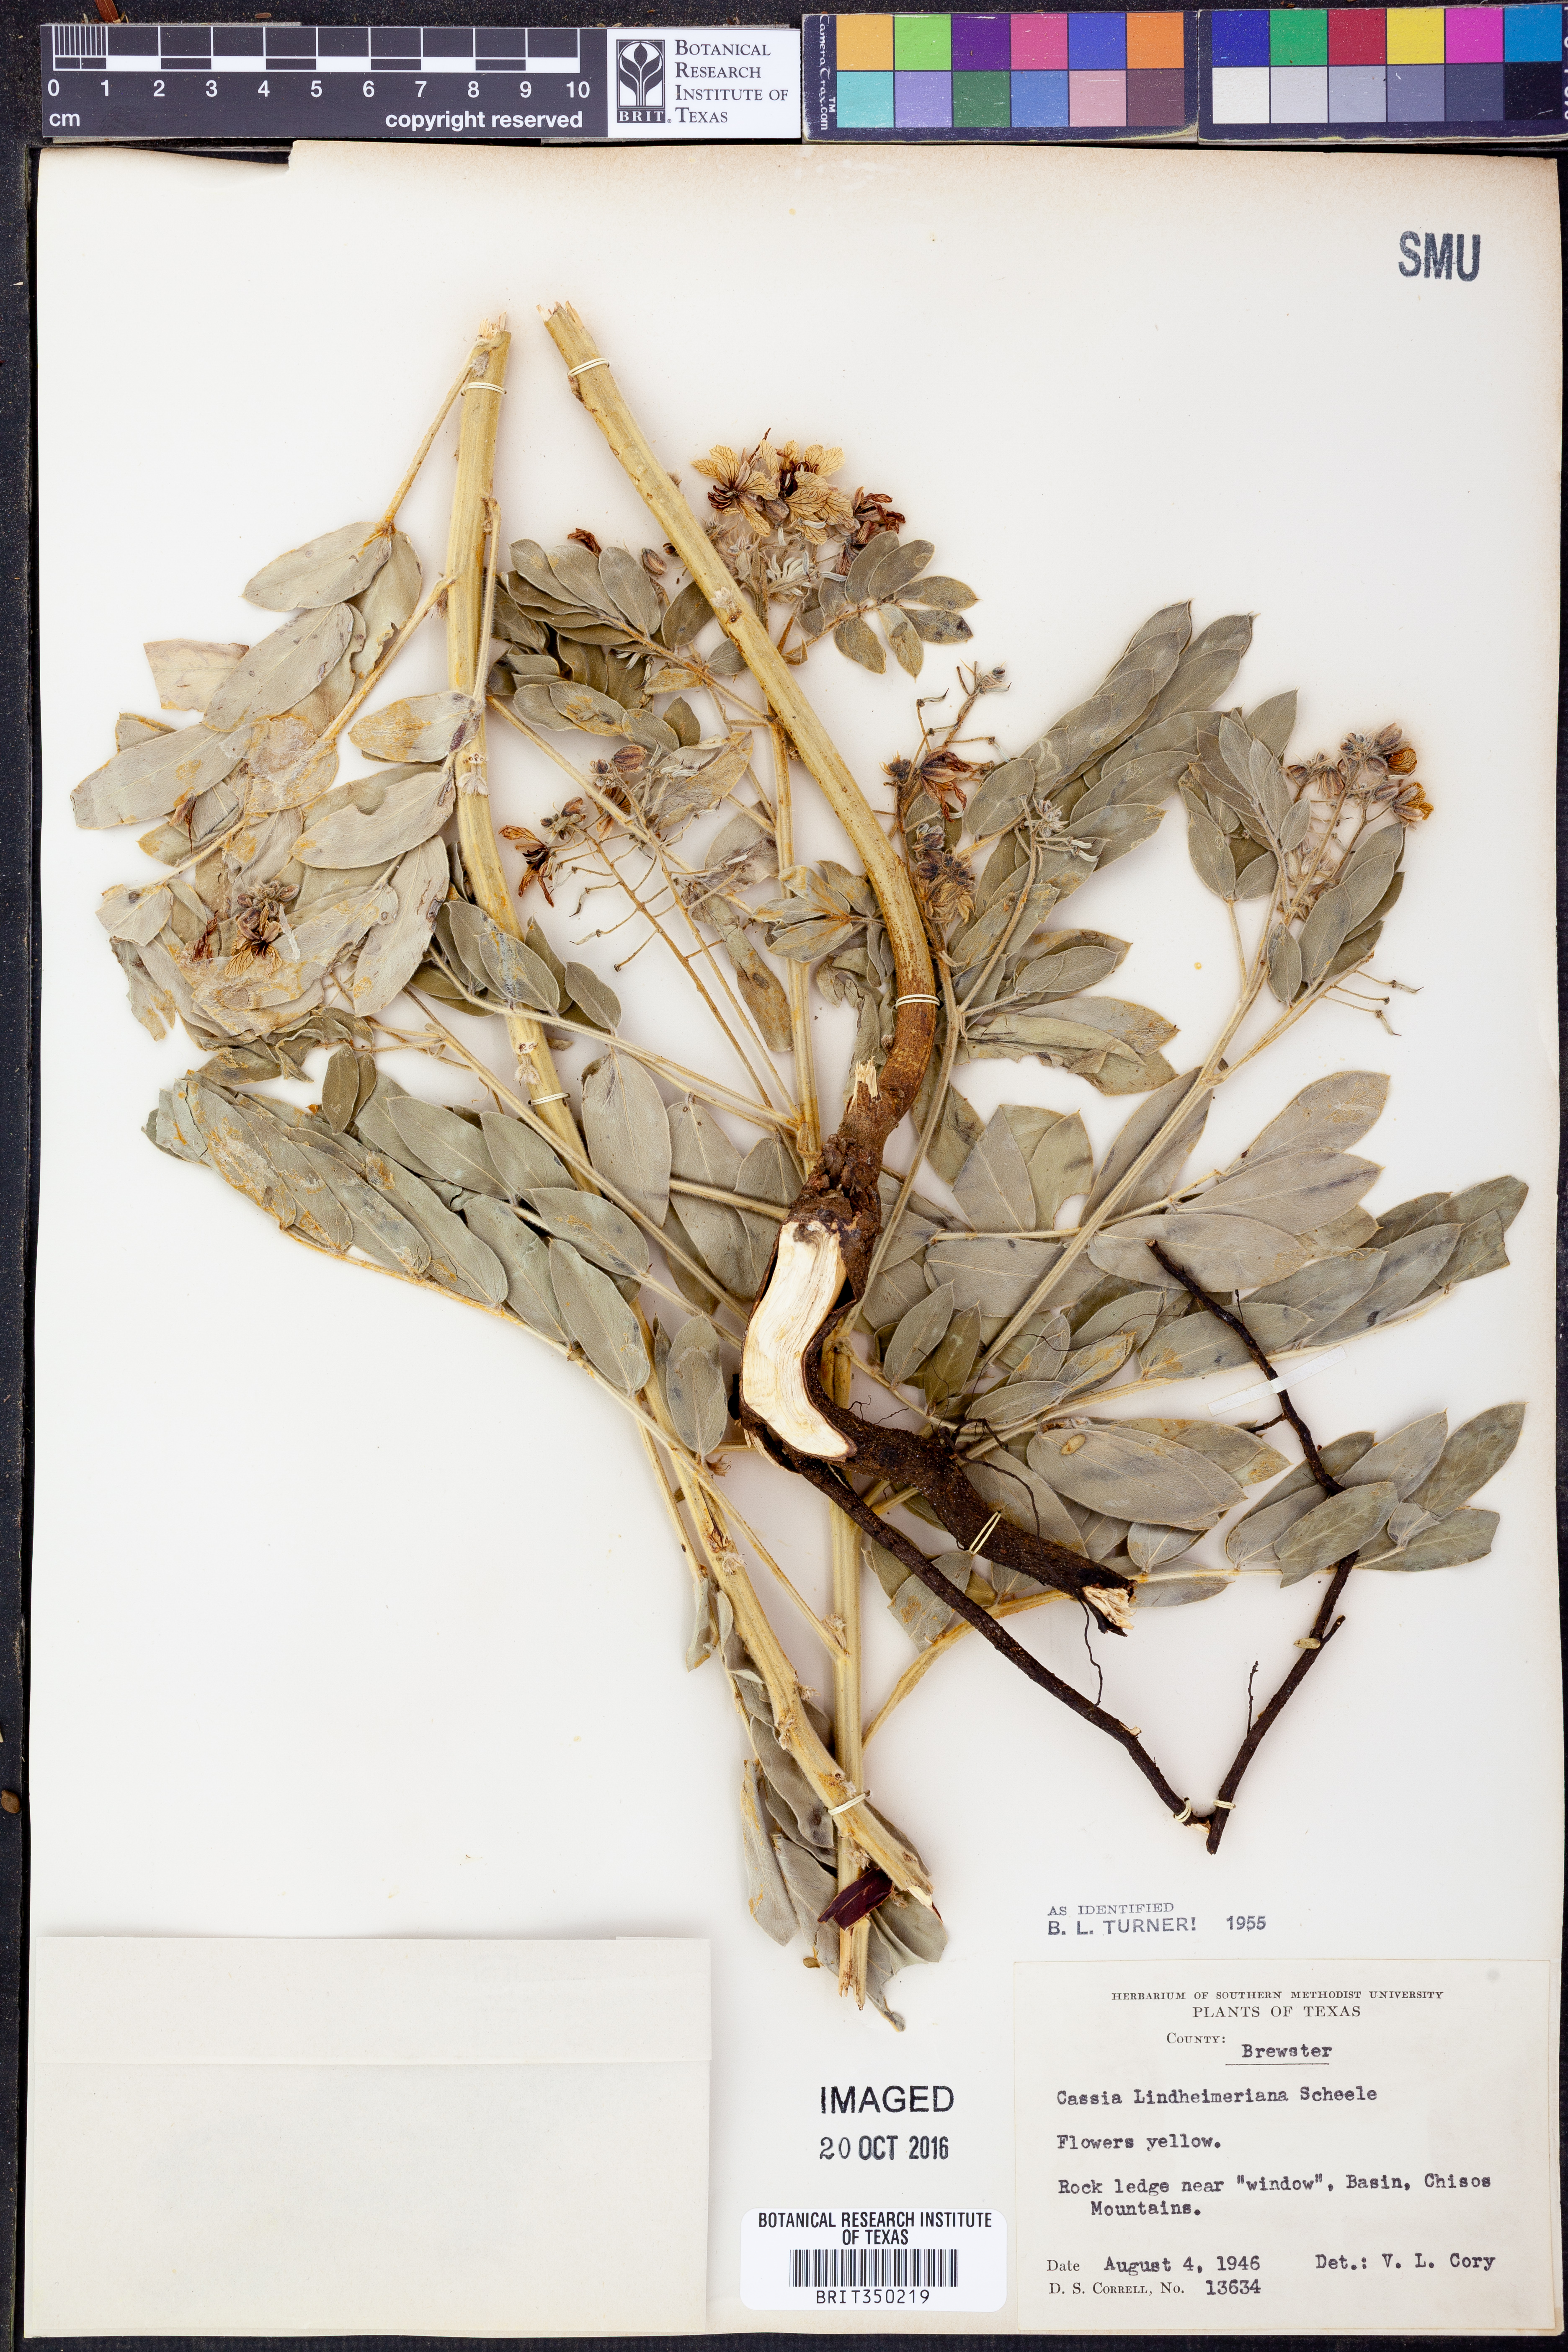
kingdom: Plantae
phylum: Tracheophyta
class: Magnoliopsida
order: Fabales
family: Fabaceae
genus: Senna
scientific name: Senna lindheimeriana
